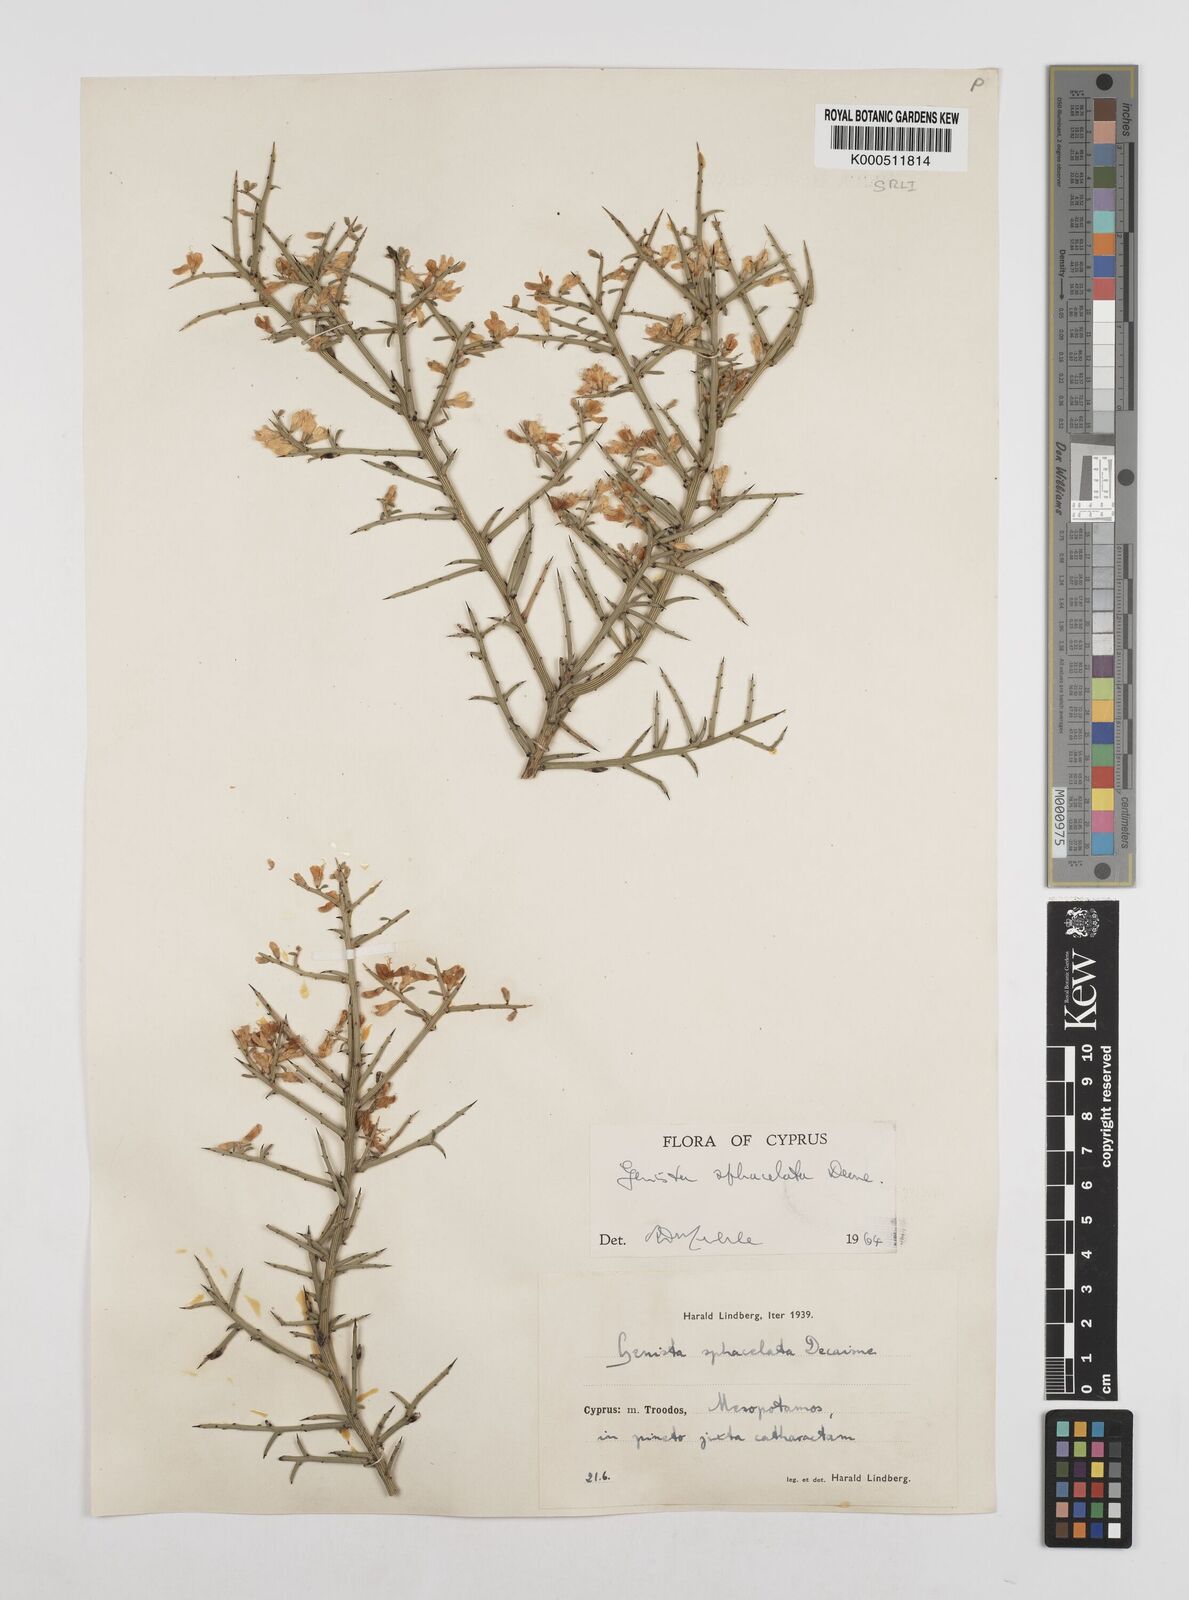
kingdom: Plantae
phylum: Tracheophyta
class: Magnoliopsida
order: Fabales
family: Fabaceae
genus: Genista
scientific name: Genista
